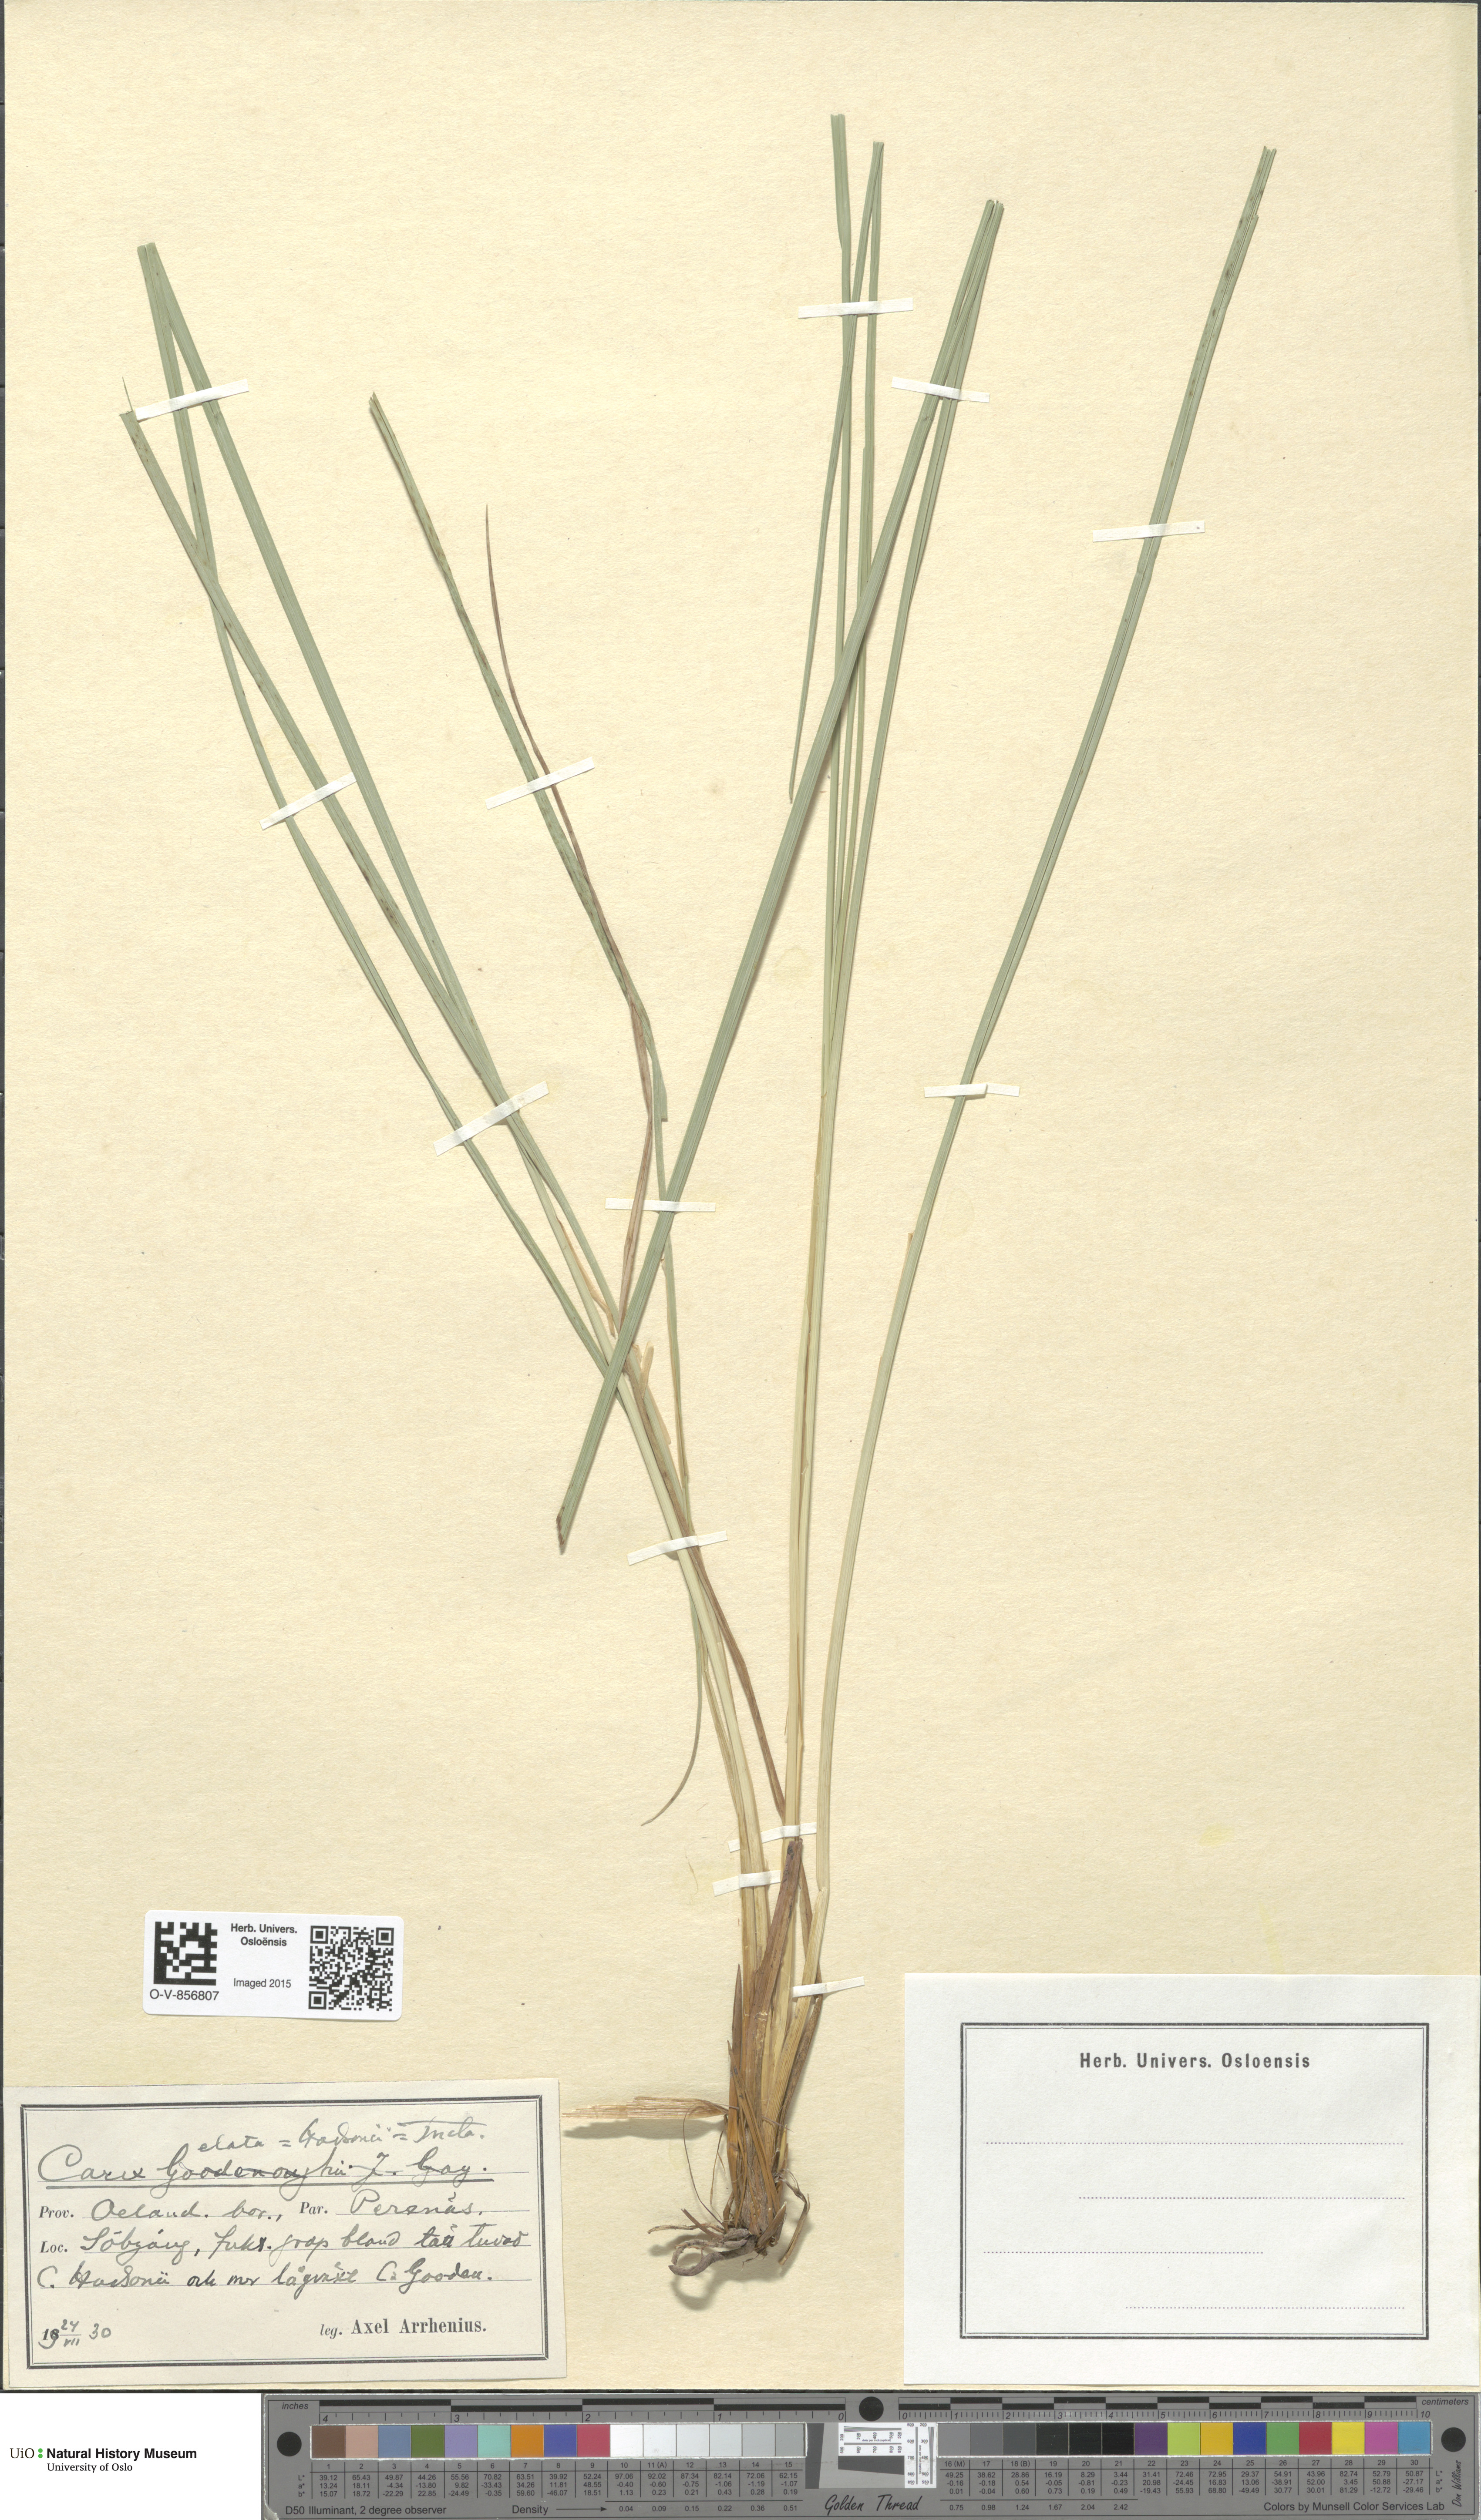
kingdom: Plantae
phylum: Tracheophyta
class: Liliopsida
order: Poales
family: Cyperaceae
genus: Carex
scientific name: Carex
